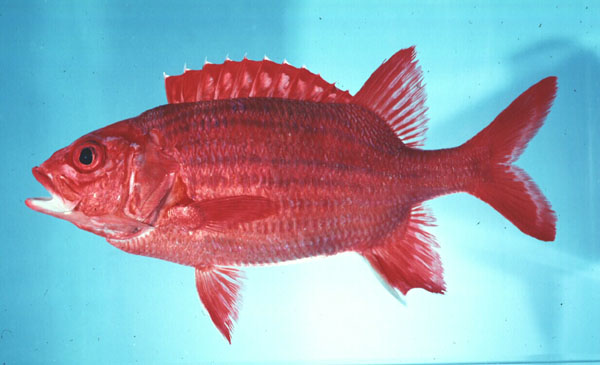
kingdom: Animalia
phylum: Chordata
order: Beryciformes
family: Holocentridae
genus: Sargocentron
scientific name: Sargocentron tiere
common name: Blue lined squirrelfish
